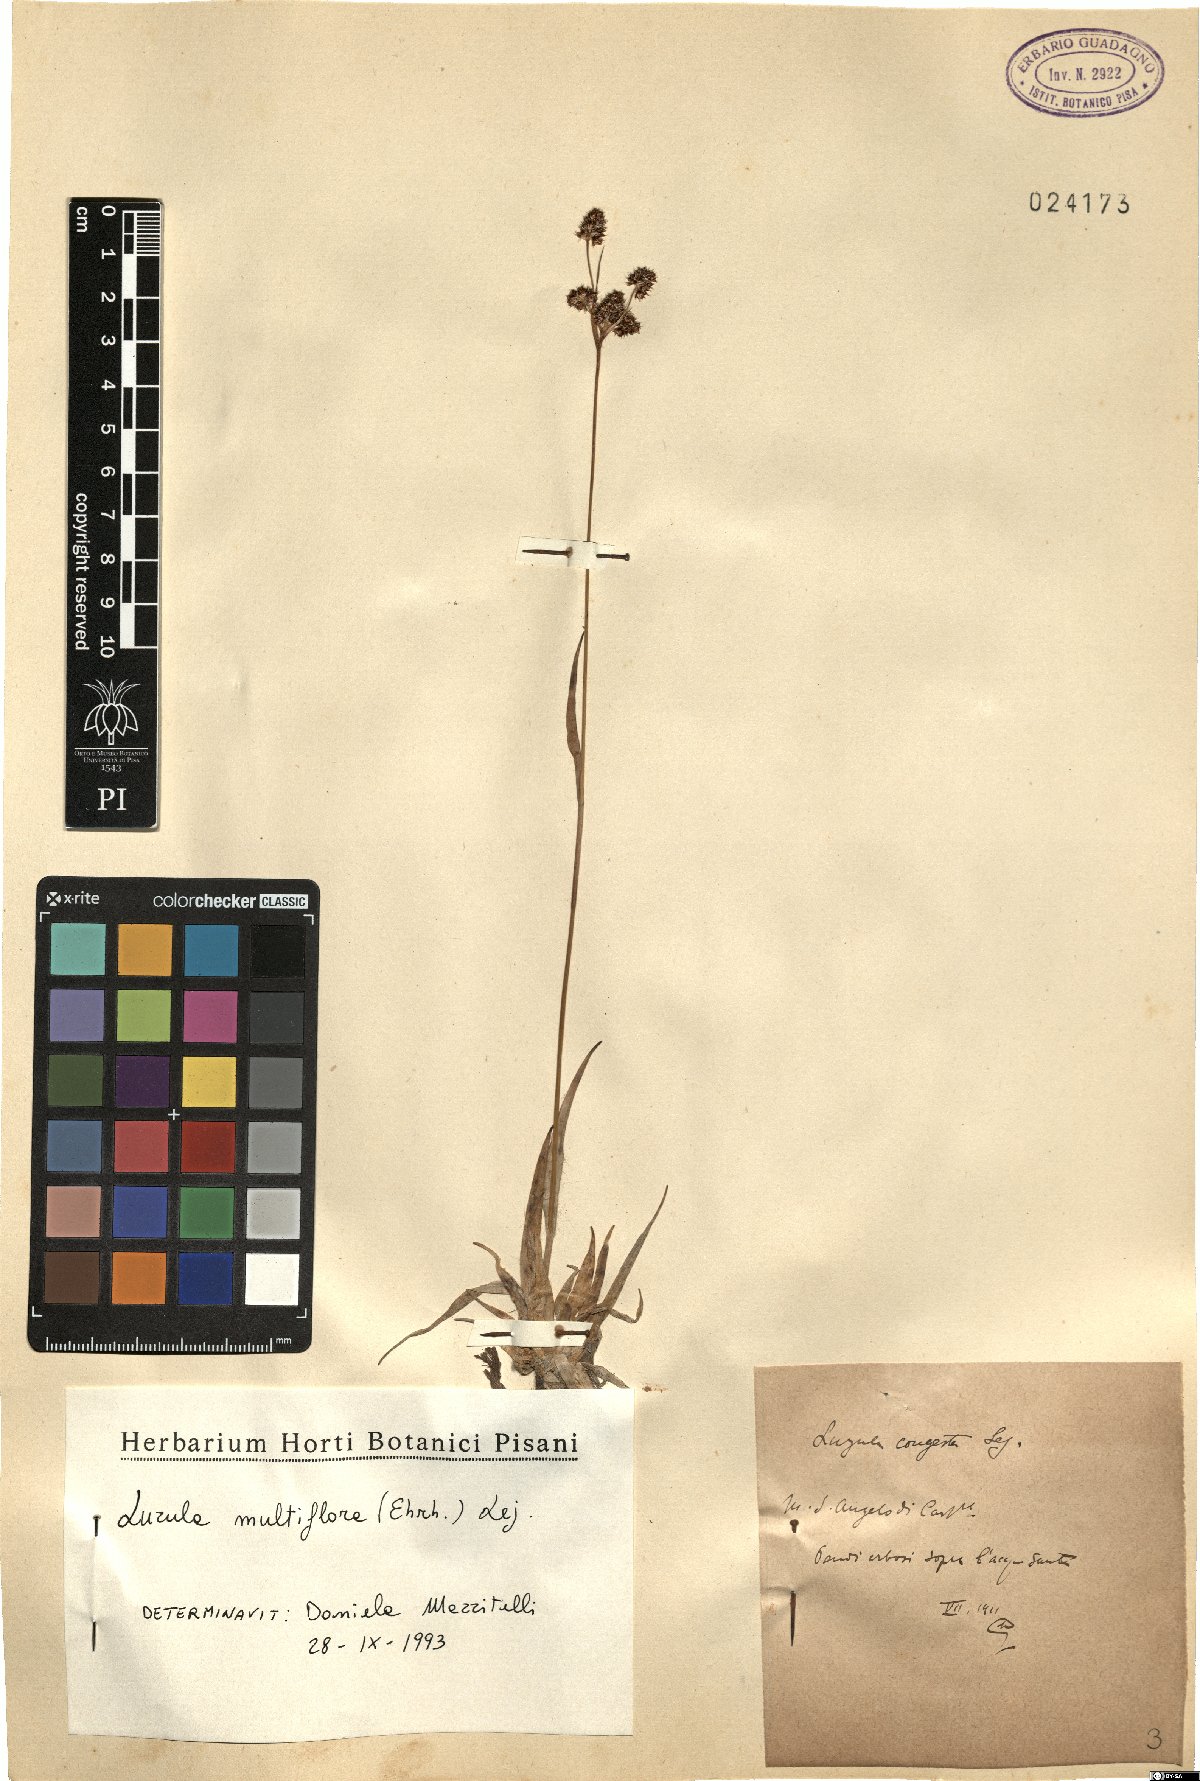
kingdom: Plantae
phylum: Tracheophyta
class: Liliopsida
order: Poales
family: Juncaceae
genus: Luzula
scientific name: Luzula multiflora
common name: Heath wood-rush
